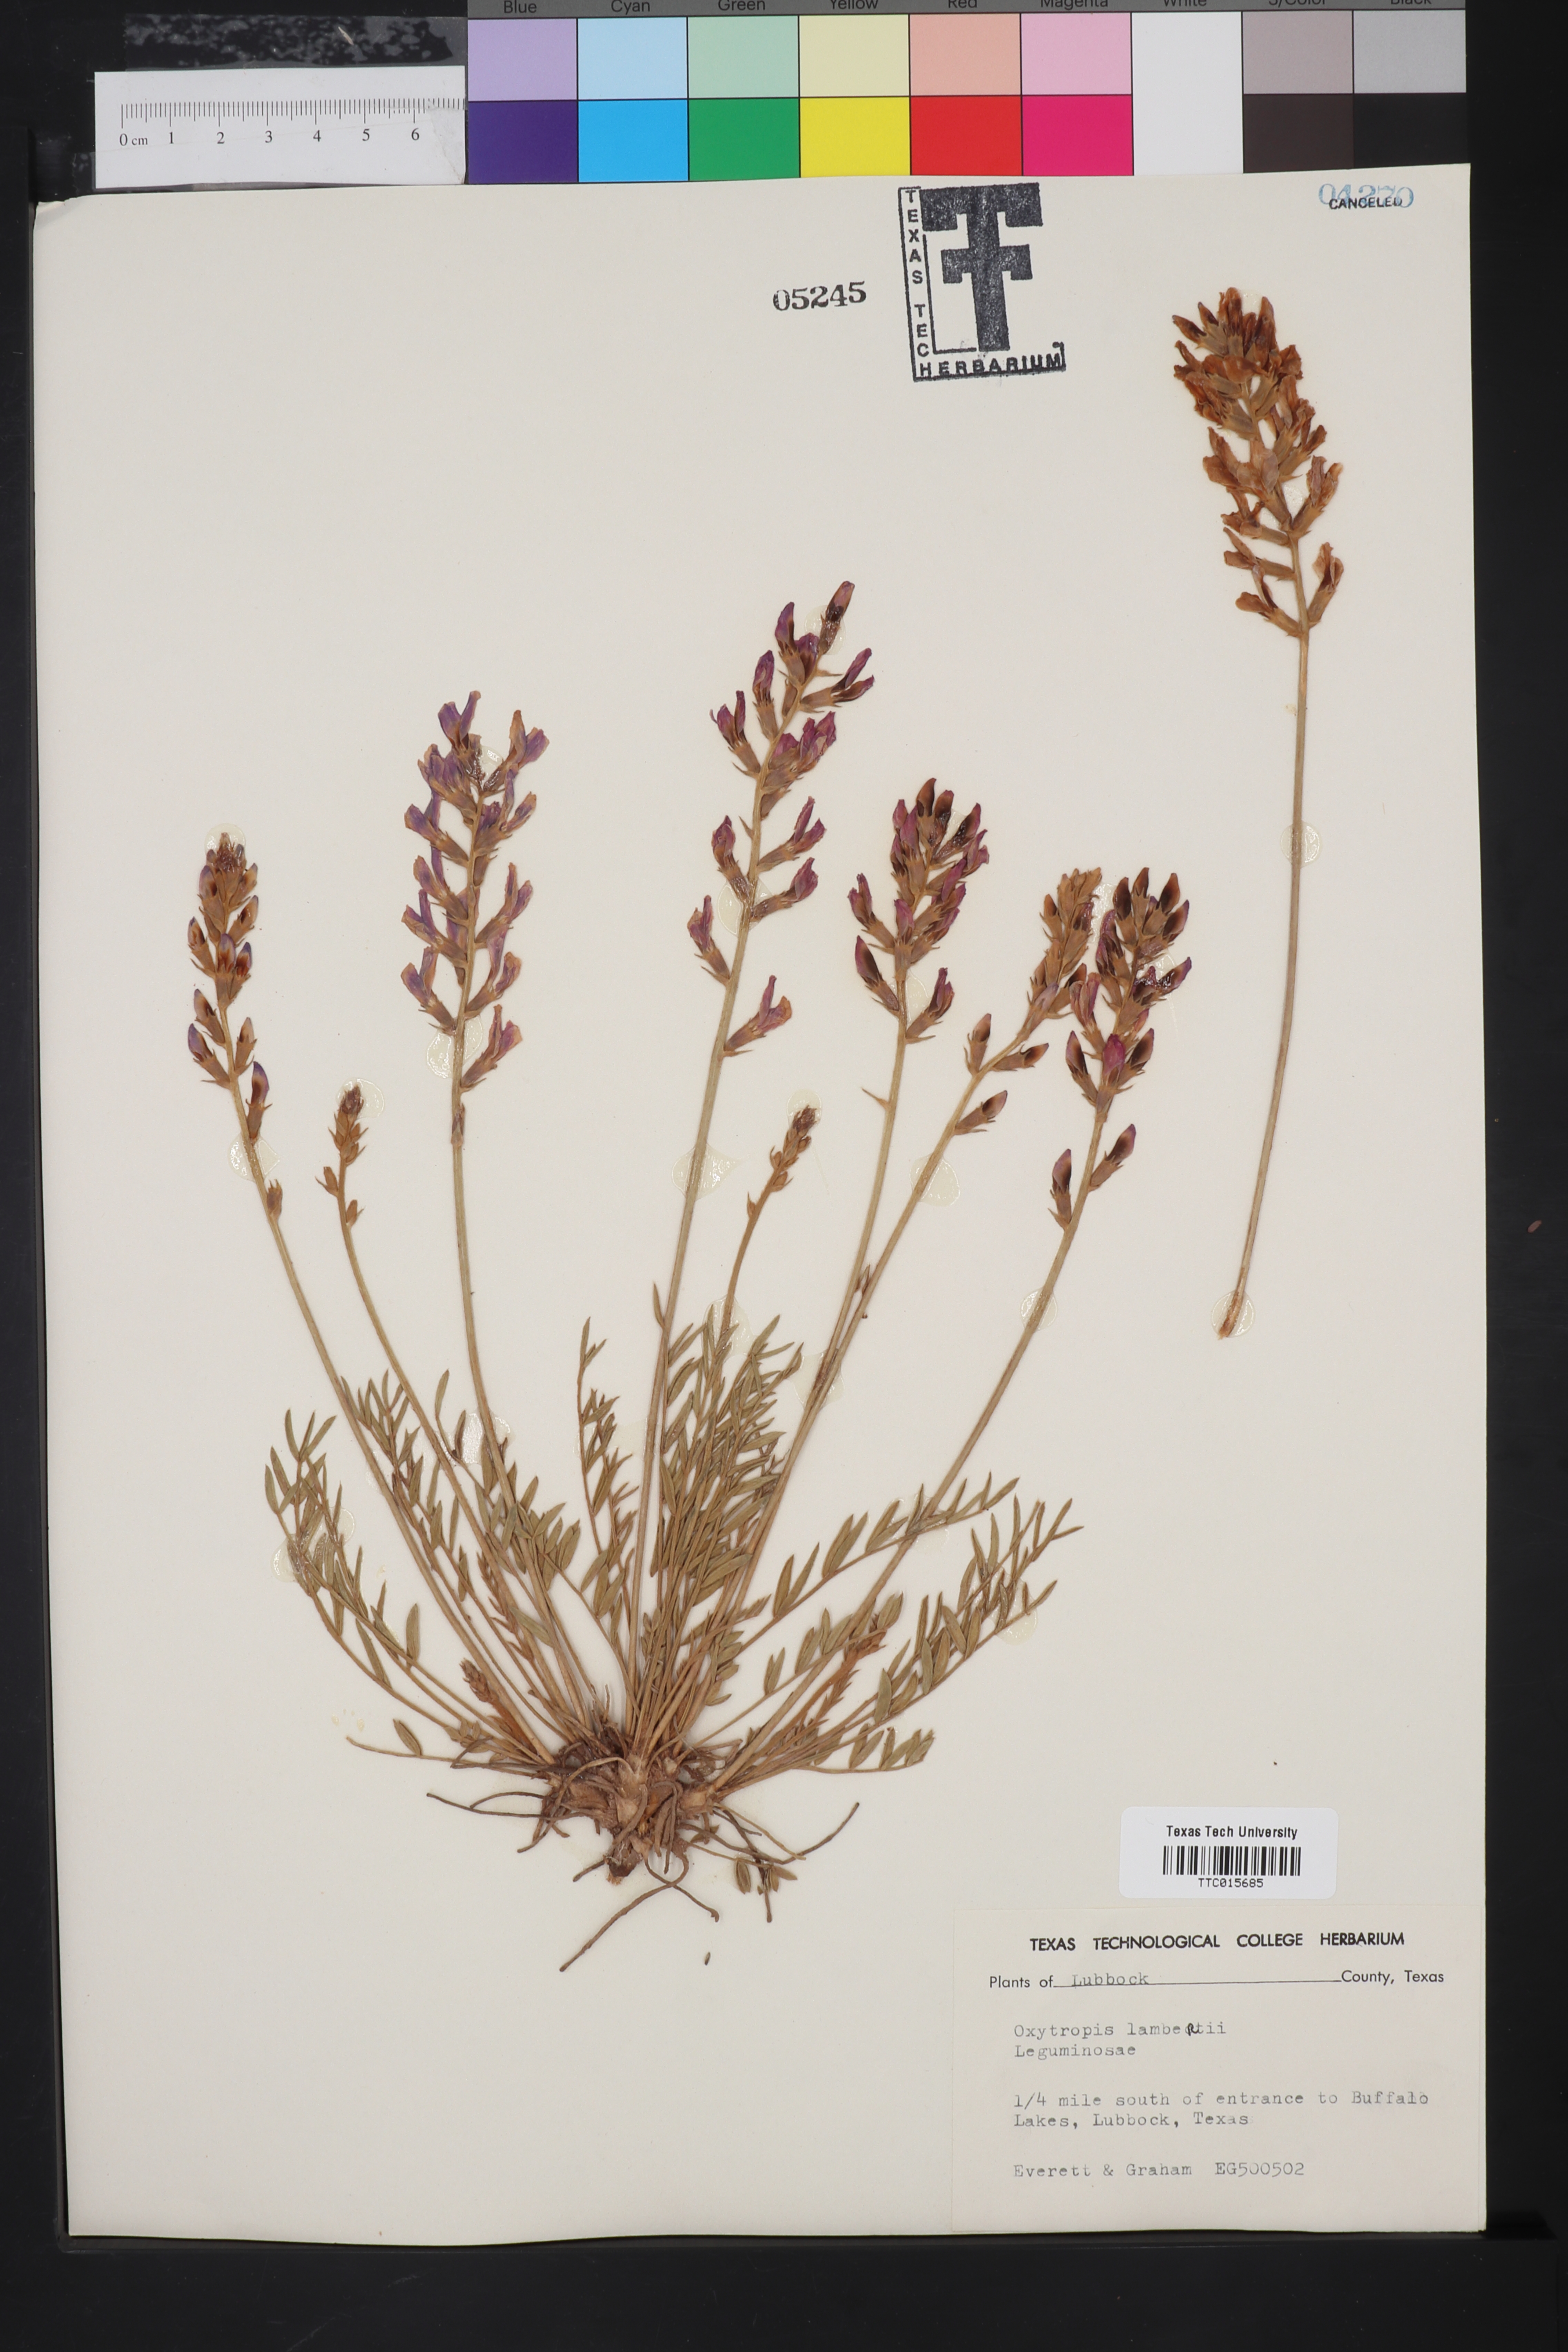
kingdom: Plantae
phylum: Tracheophyta
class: Magnoliopsida
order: Fabales
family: Fabaceae
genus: Oxytropis
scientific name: Oxytropis lambertii
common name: Purple locoweed
